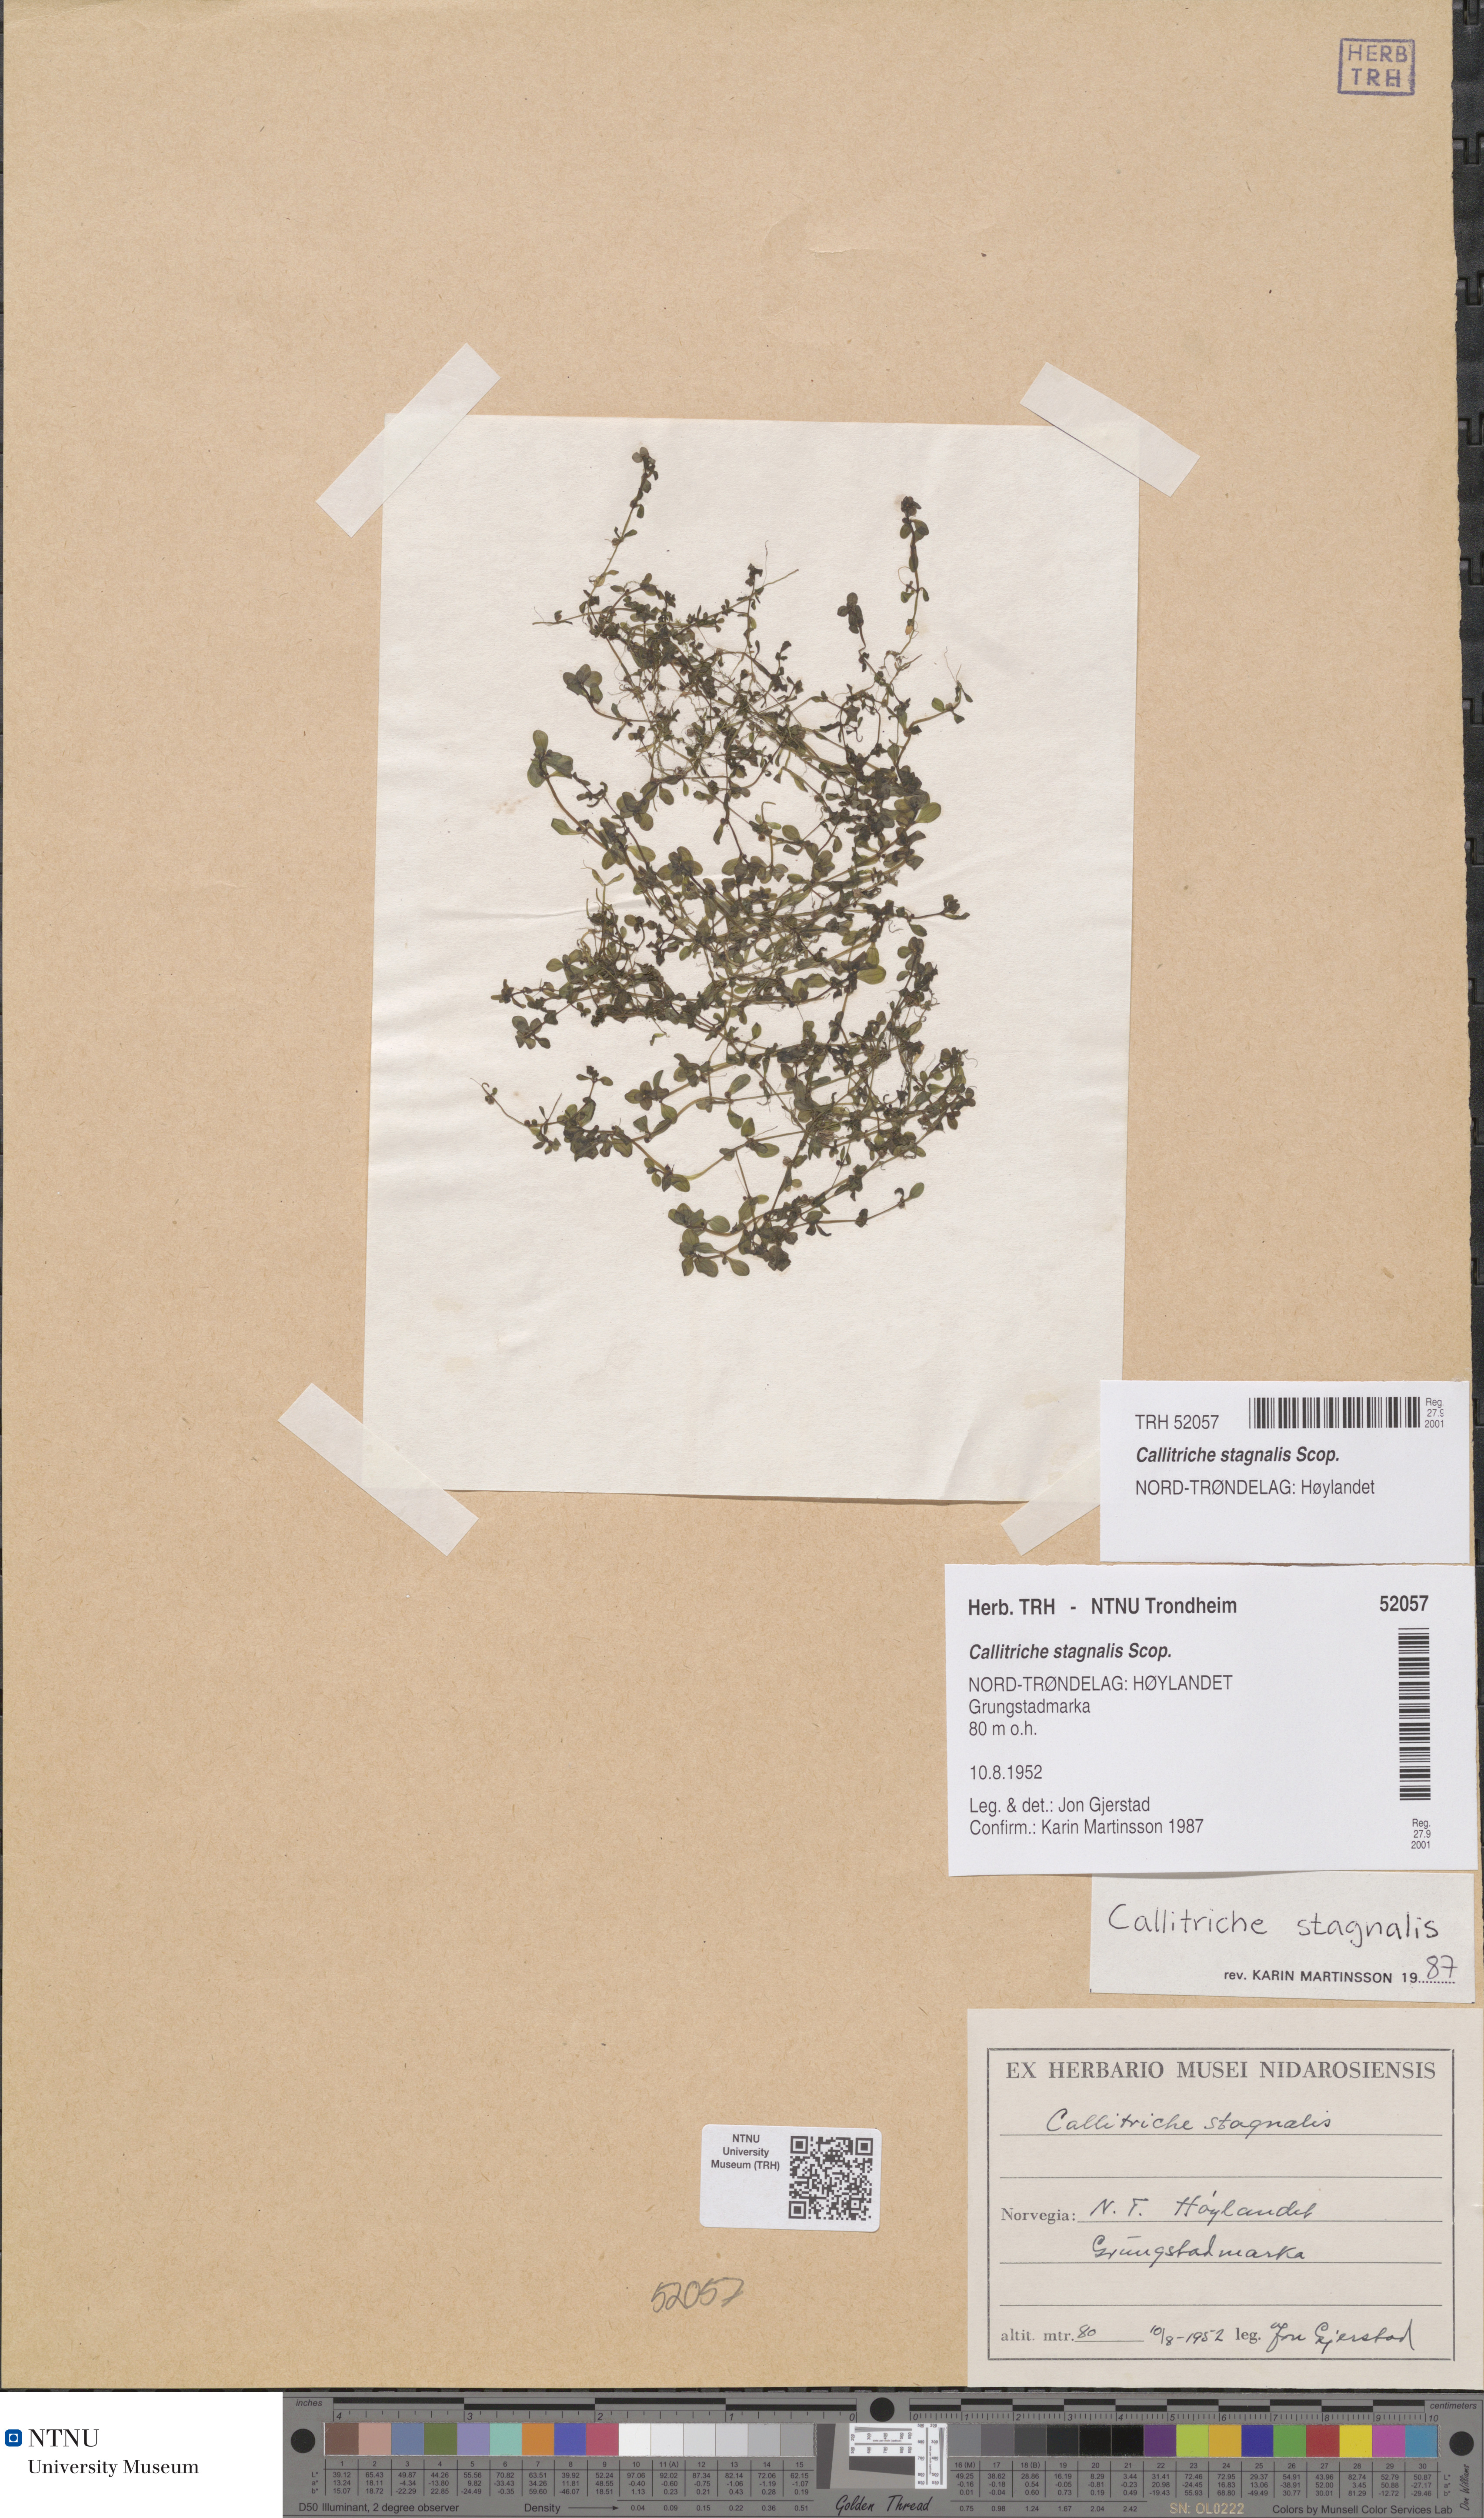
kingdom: Plantae
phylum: Tracheophyta
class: Magnoliopsida
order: Lamiales
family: Plantaginaceae
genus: Callitriche
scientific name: Callitriche stagnalis
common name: Common water-starwort
